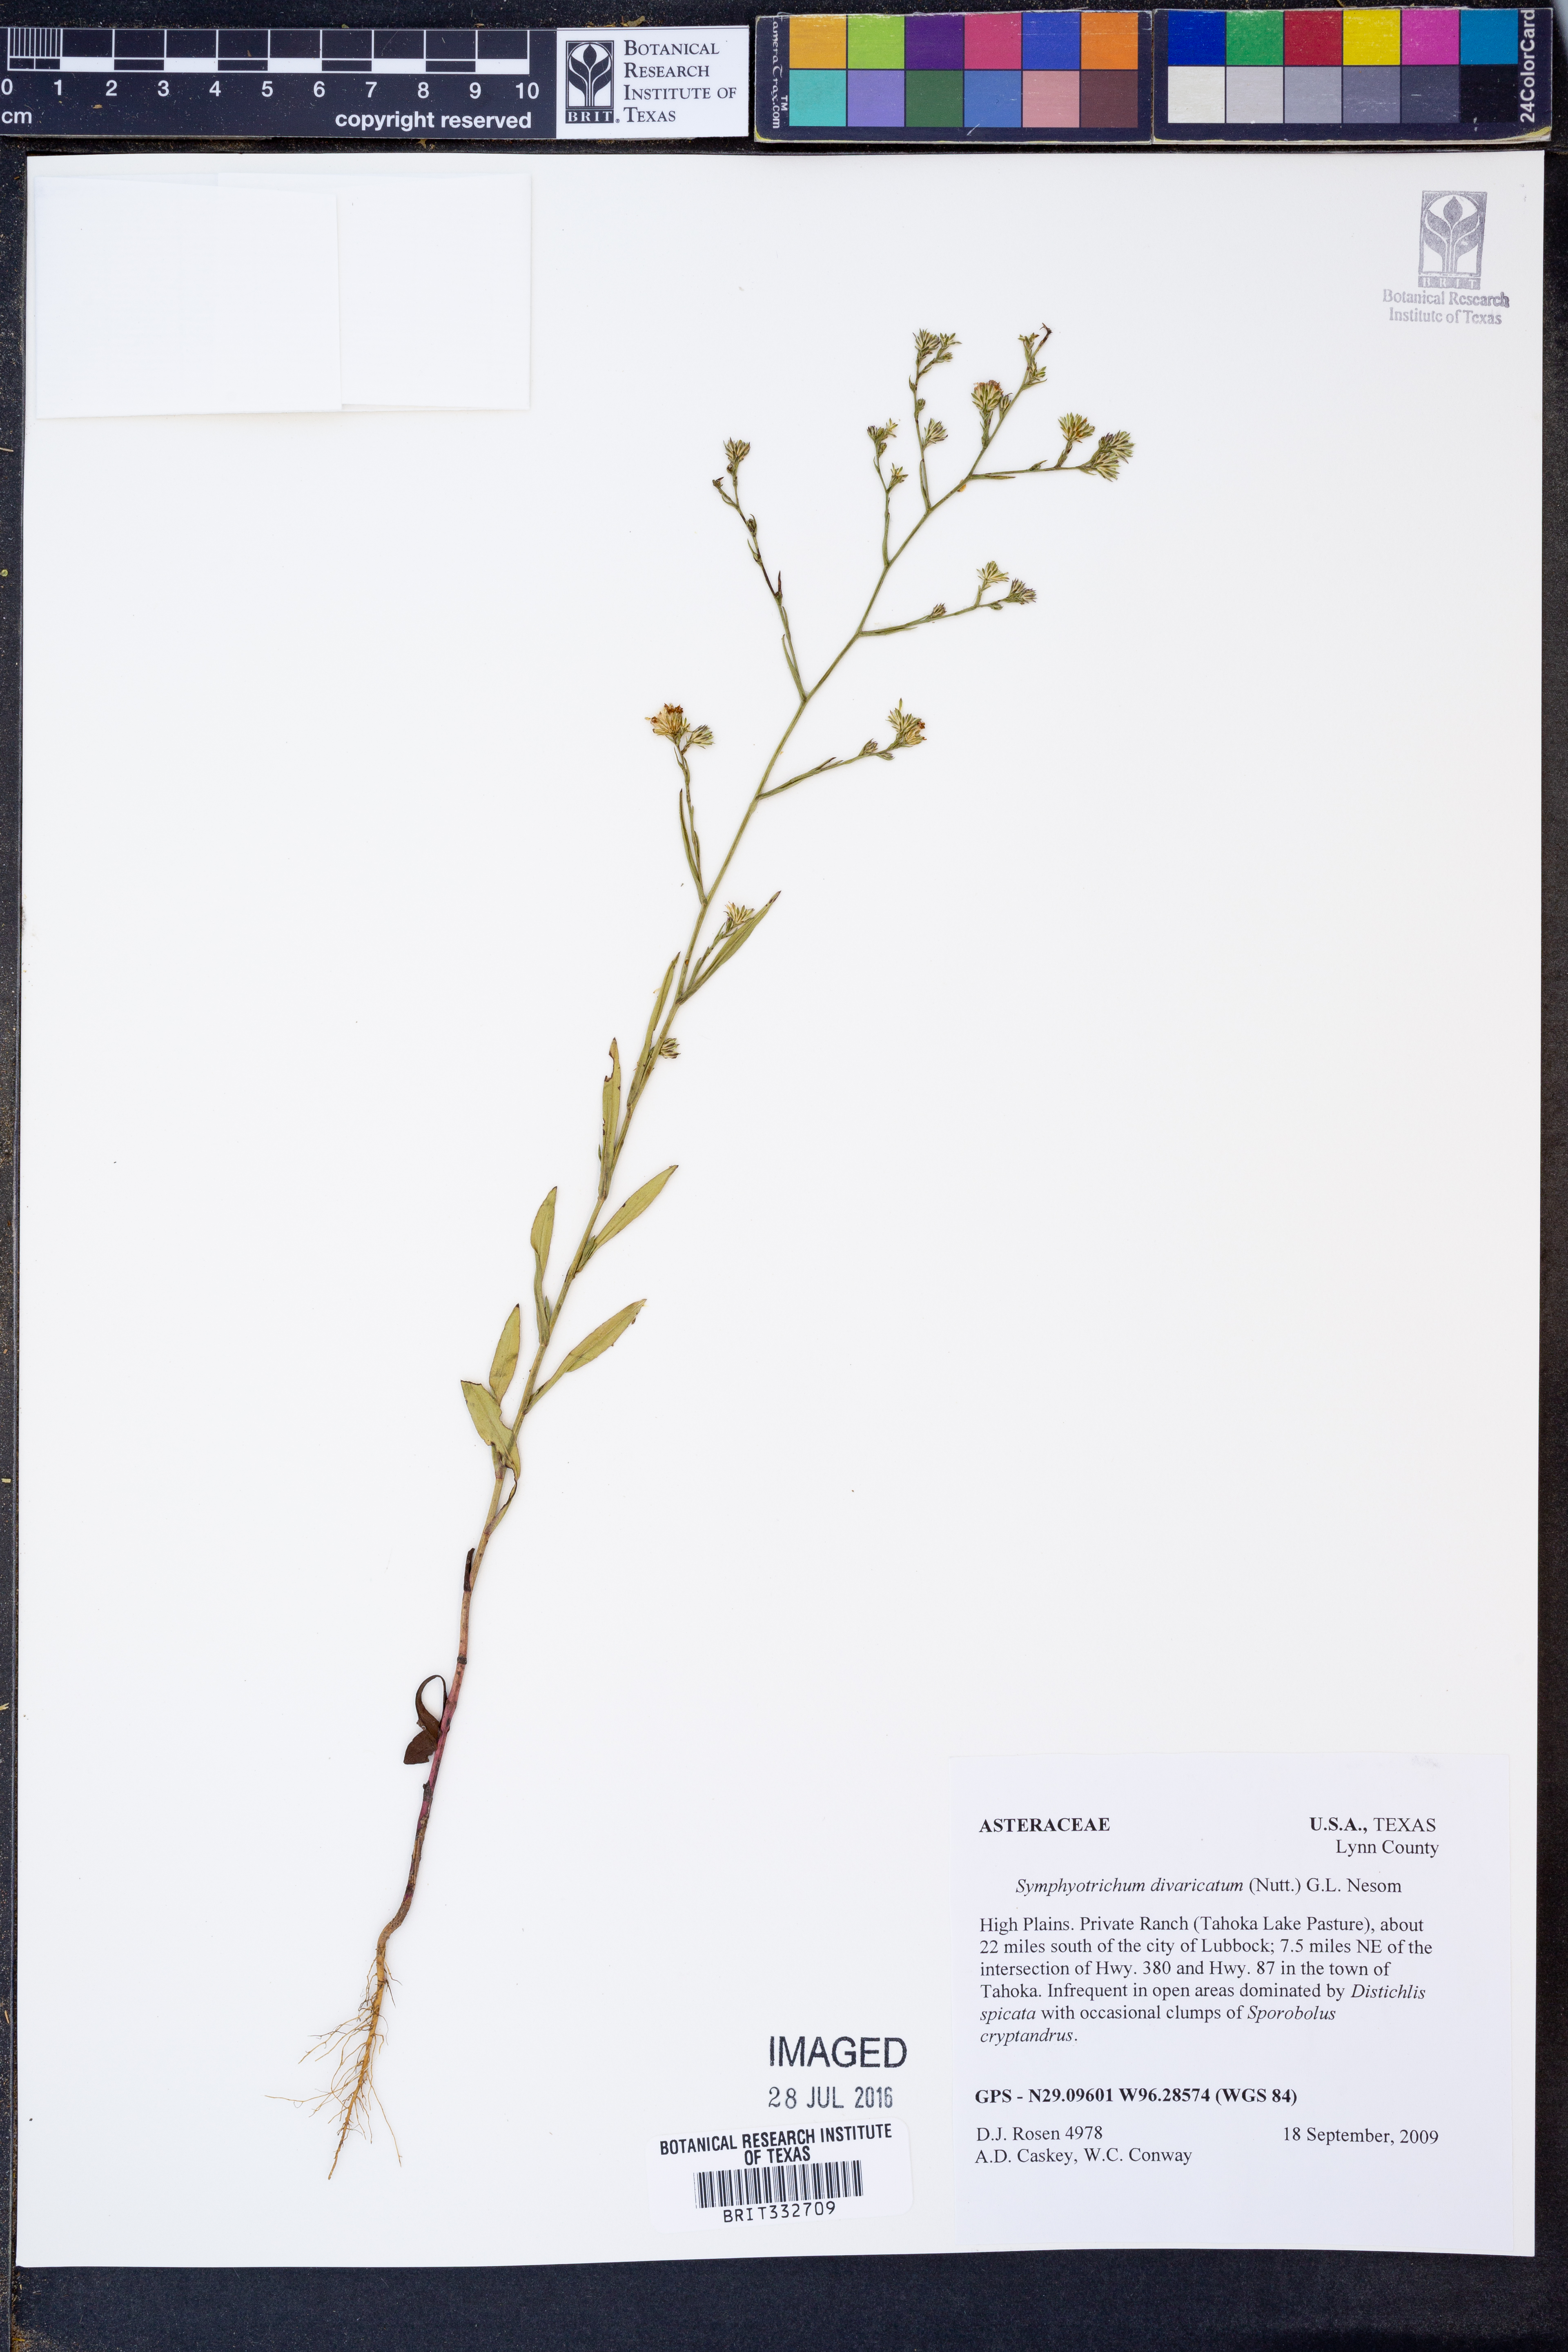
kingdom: Plantae
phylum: Tracheophyta
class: Magnoliopsida
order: Asterales
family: Asteraceae
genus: Symphyotrichum
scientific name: Symphyotrichum divaricatum
